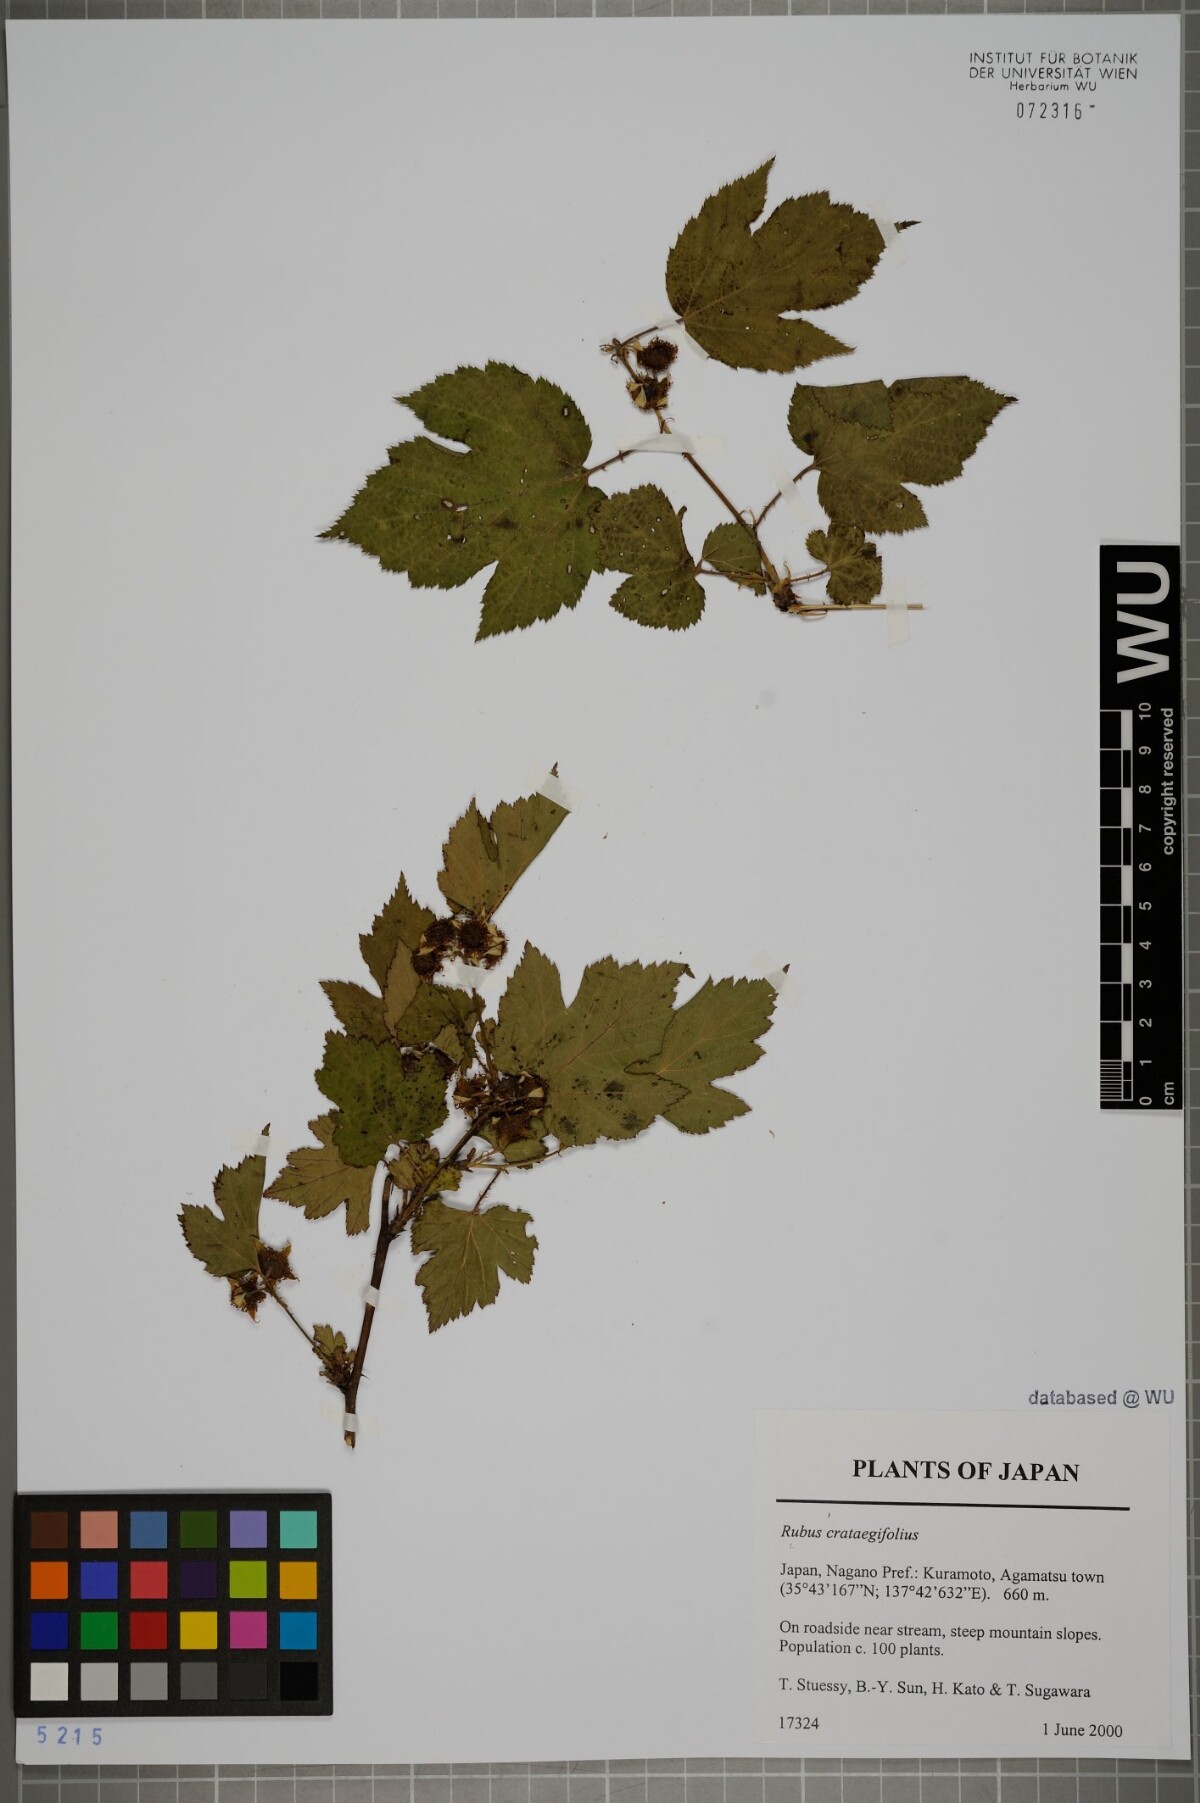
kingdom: Plantae
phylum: Tracheophyta
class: Magnoliopsida
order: Rosales
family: Rosaceae
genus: Rubus
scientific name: Rubus crataegifolius
